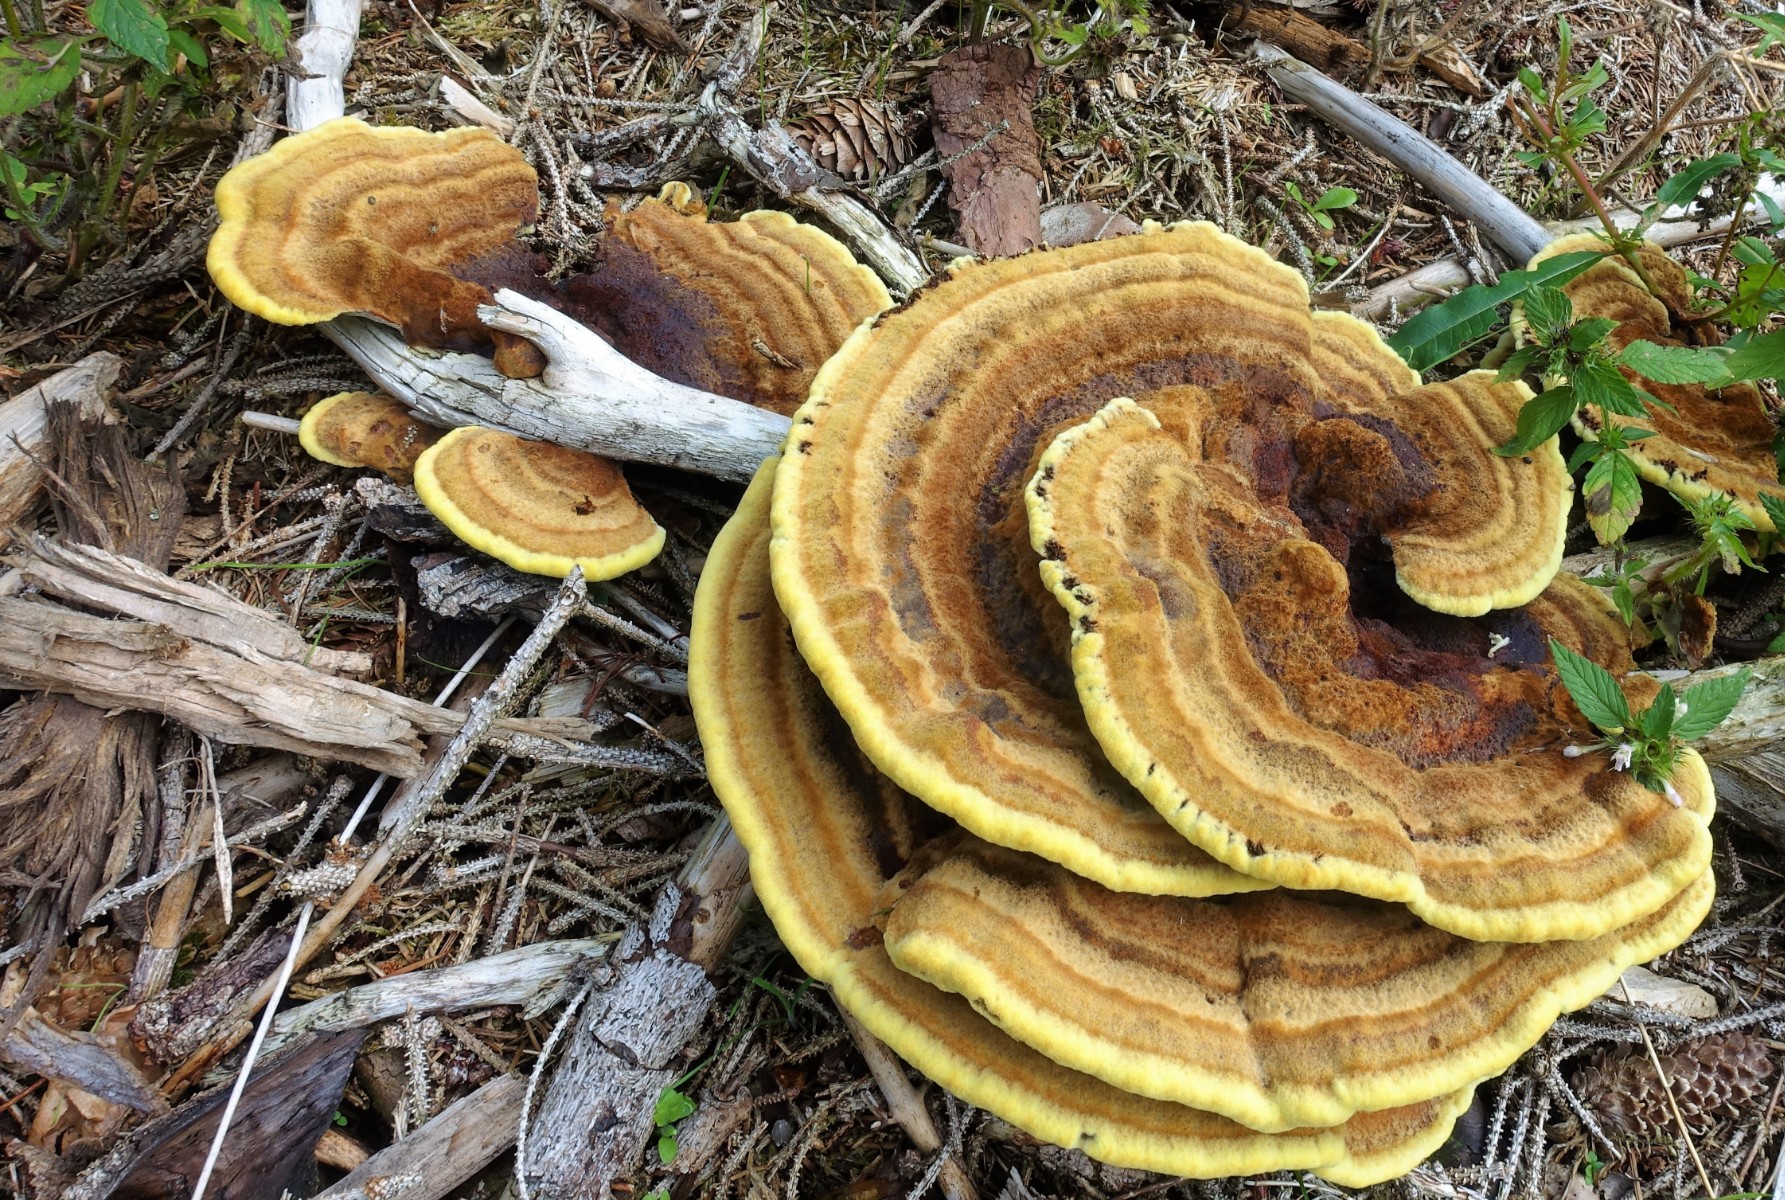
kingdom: Fungi
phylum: Basidiomycota
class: Agaricomycetes
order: Polyporales
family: Laetiporaceae
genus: Phaeolus
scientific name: Phaeolus schweinitzii
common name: brunporesvamp
